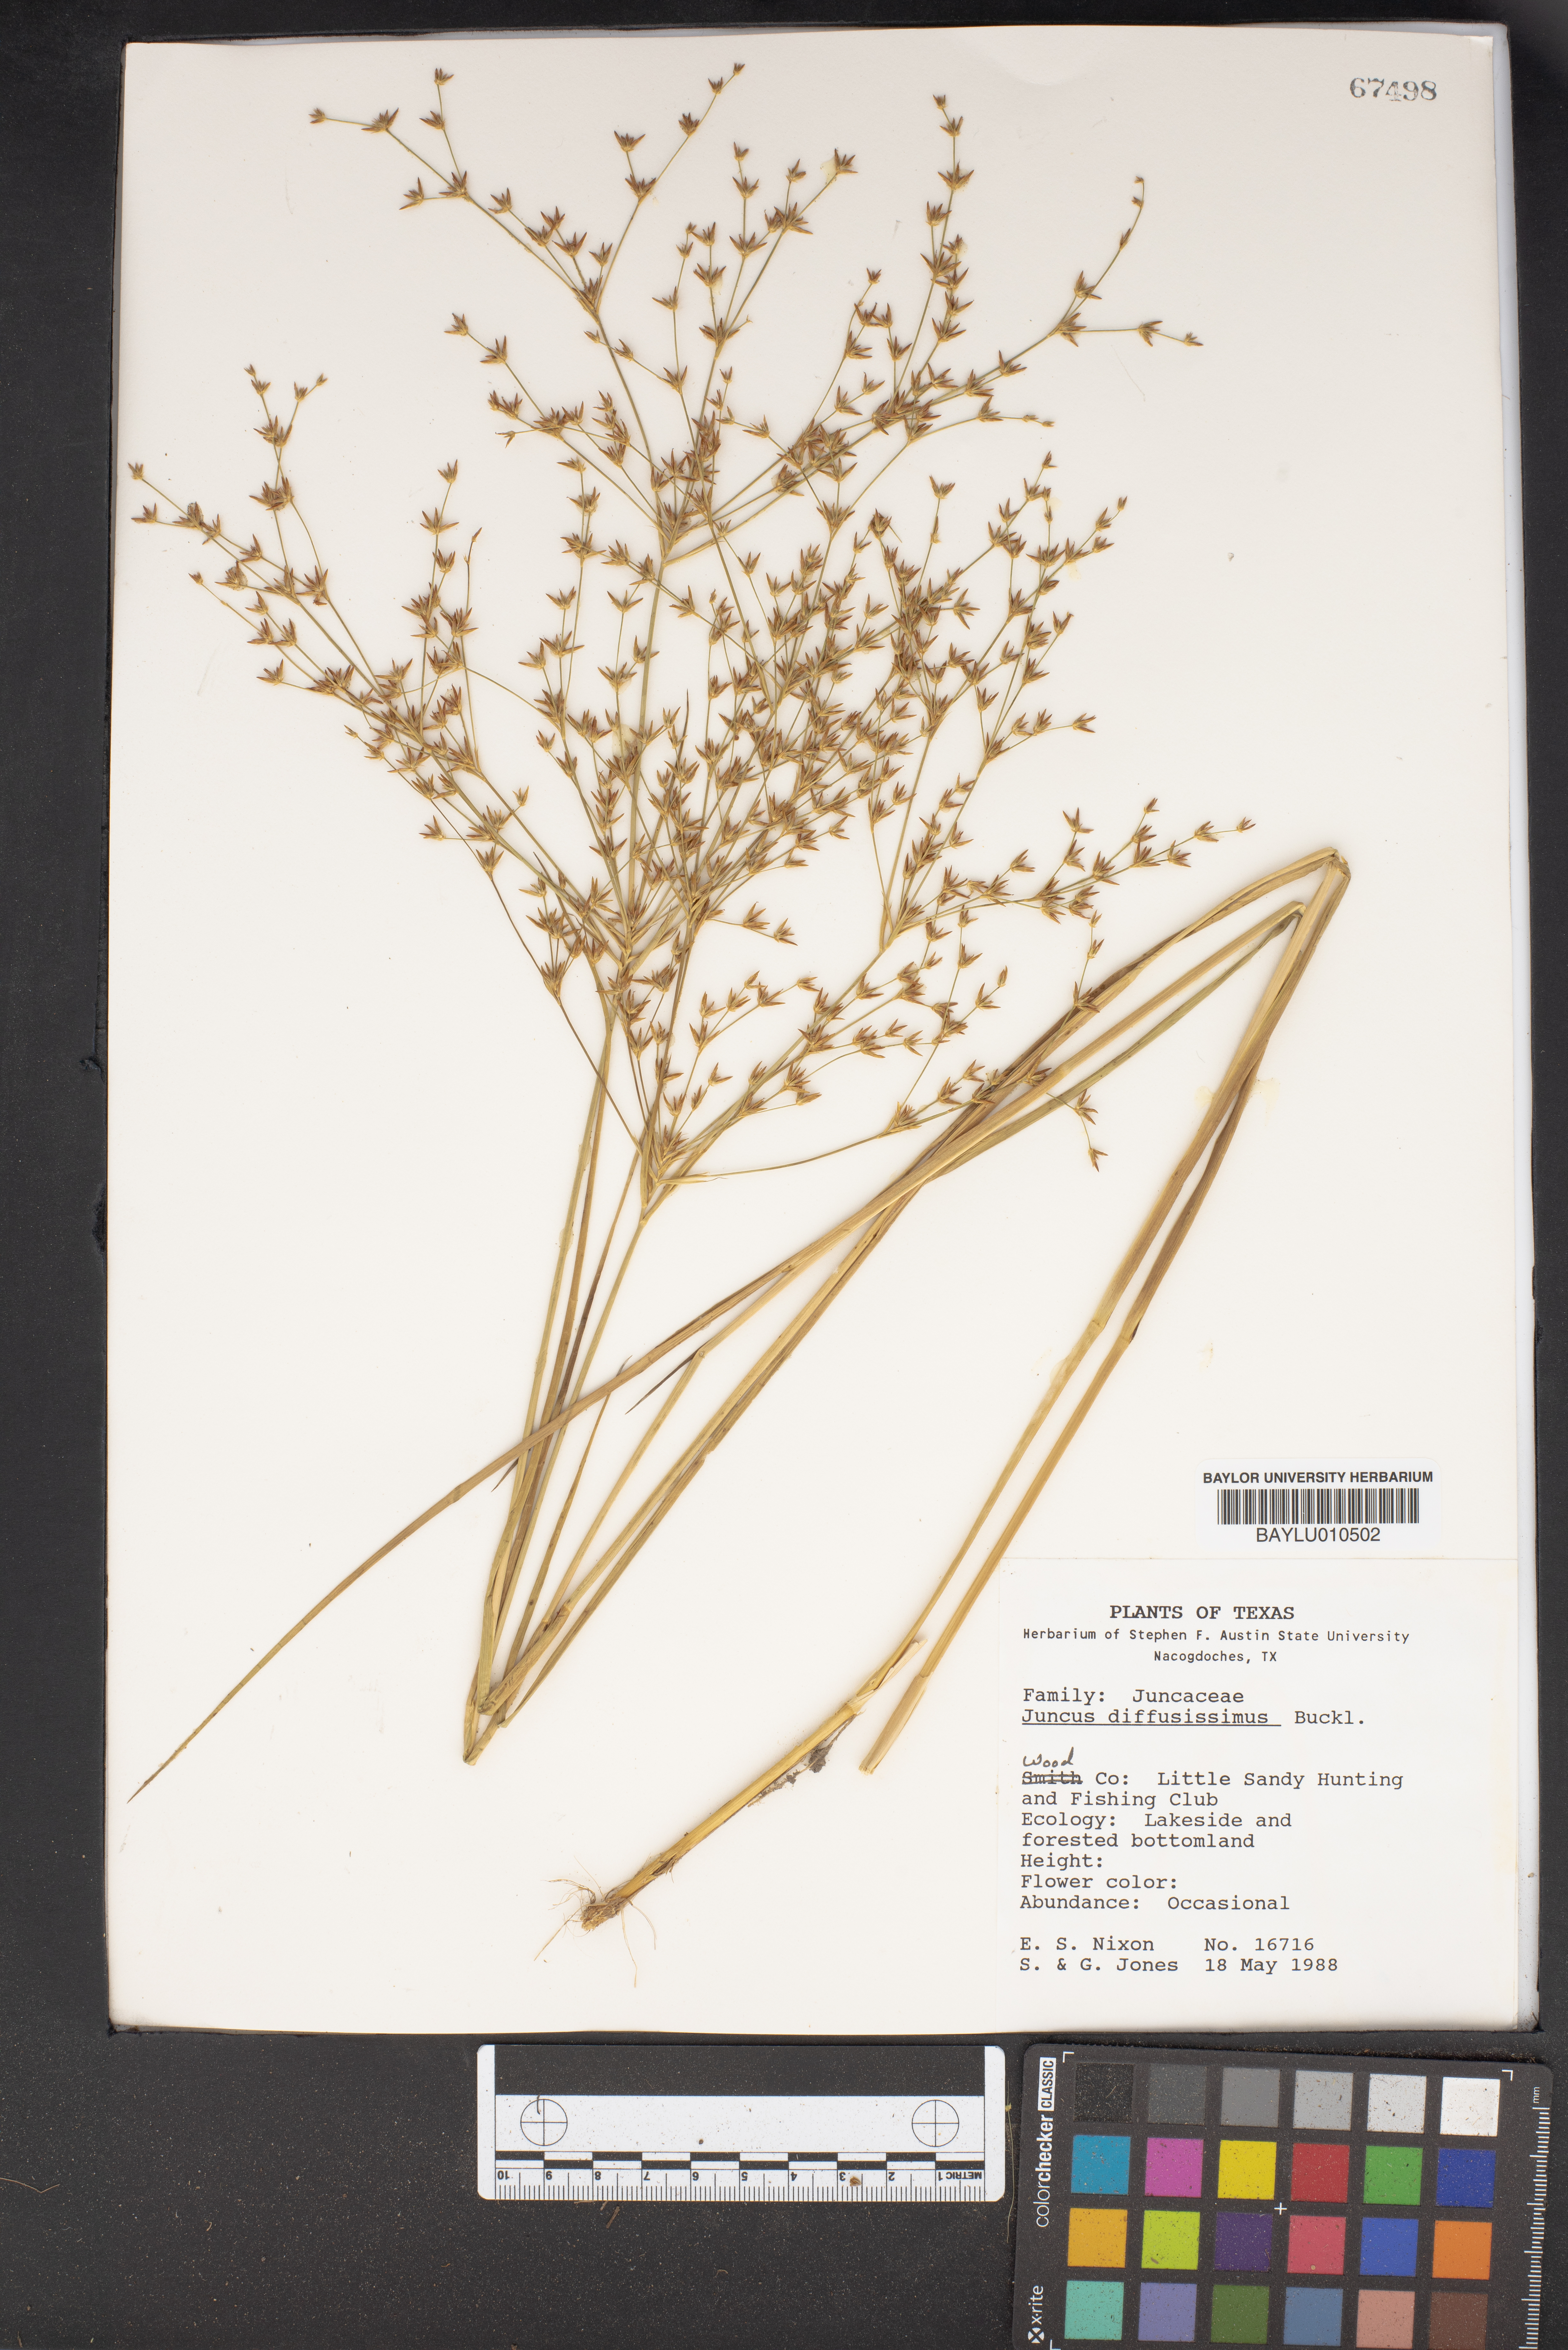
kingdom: Plantae
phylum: Tracheophyta
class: Liliopsida
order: Poales
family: Juncaceae
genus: Juncus
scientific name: Juncus diffusissimus
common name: Slimpod rush
